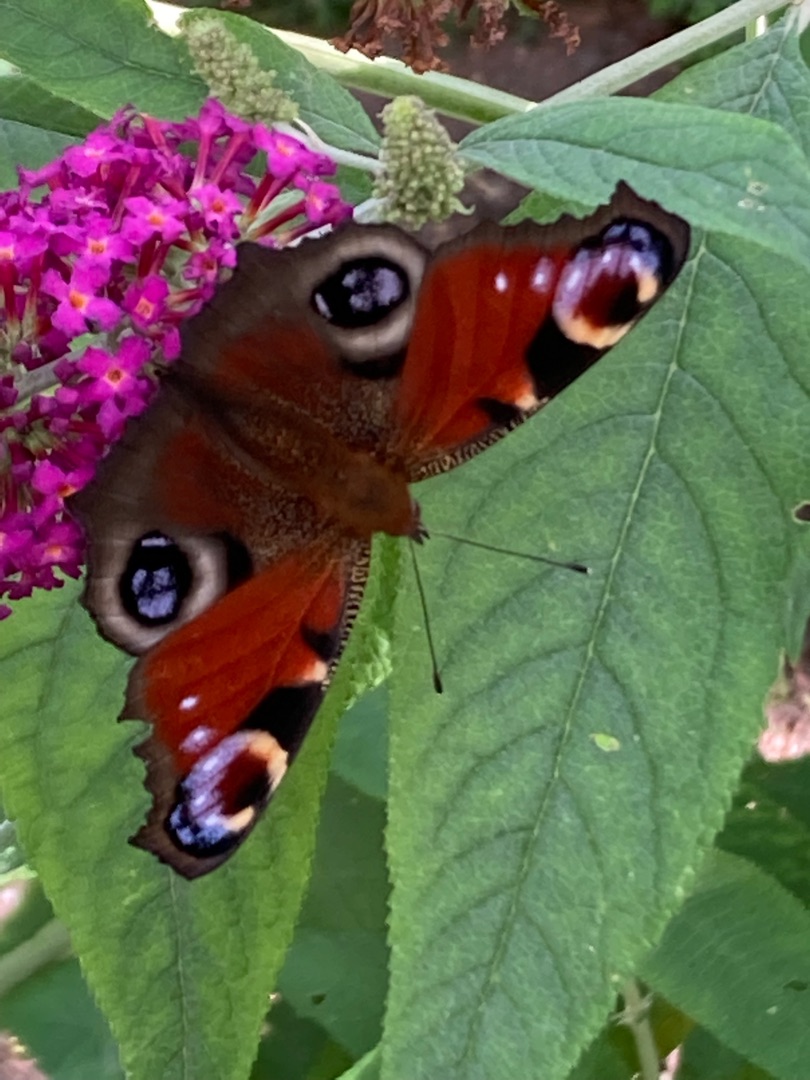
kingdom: Animalia
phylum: Arthropoda
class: Insecta
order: Lepidoptera
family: Nymphalidae
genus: Aglais
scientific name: Aglais io
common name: Dagpåfugleøje
